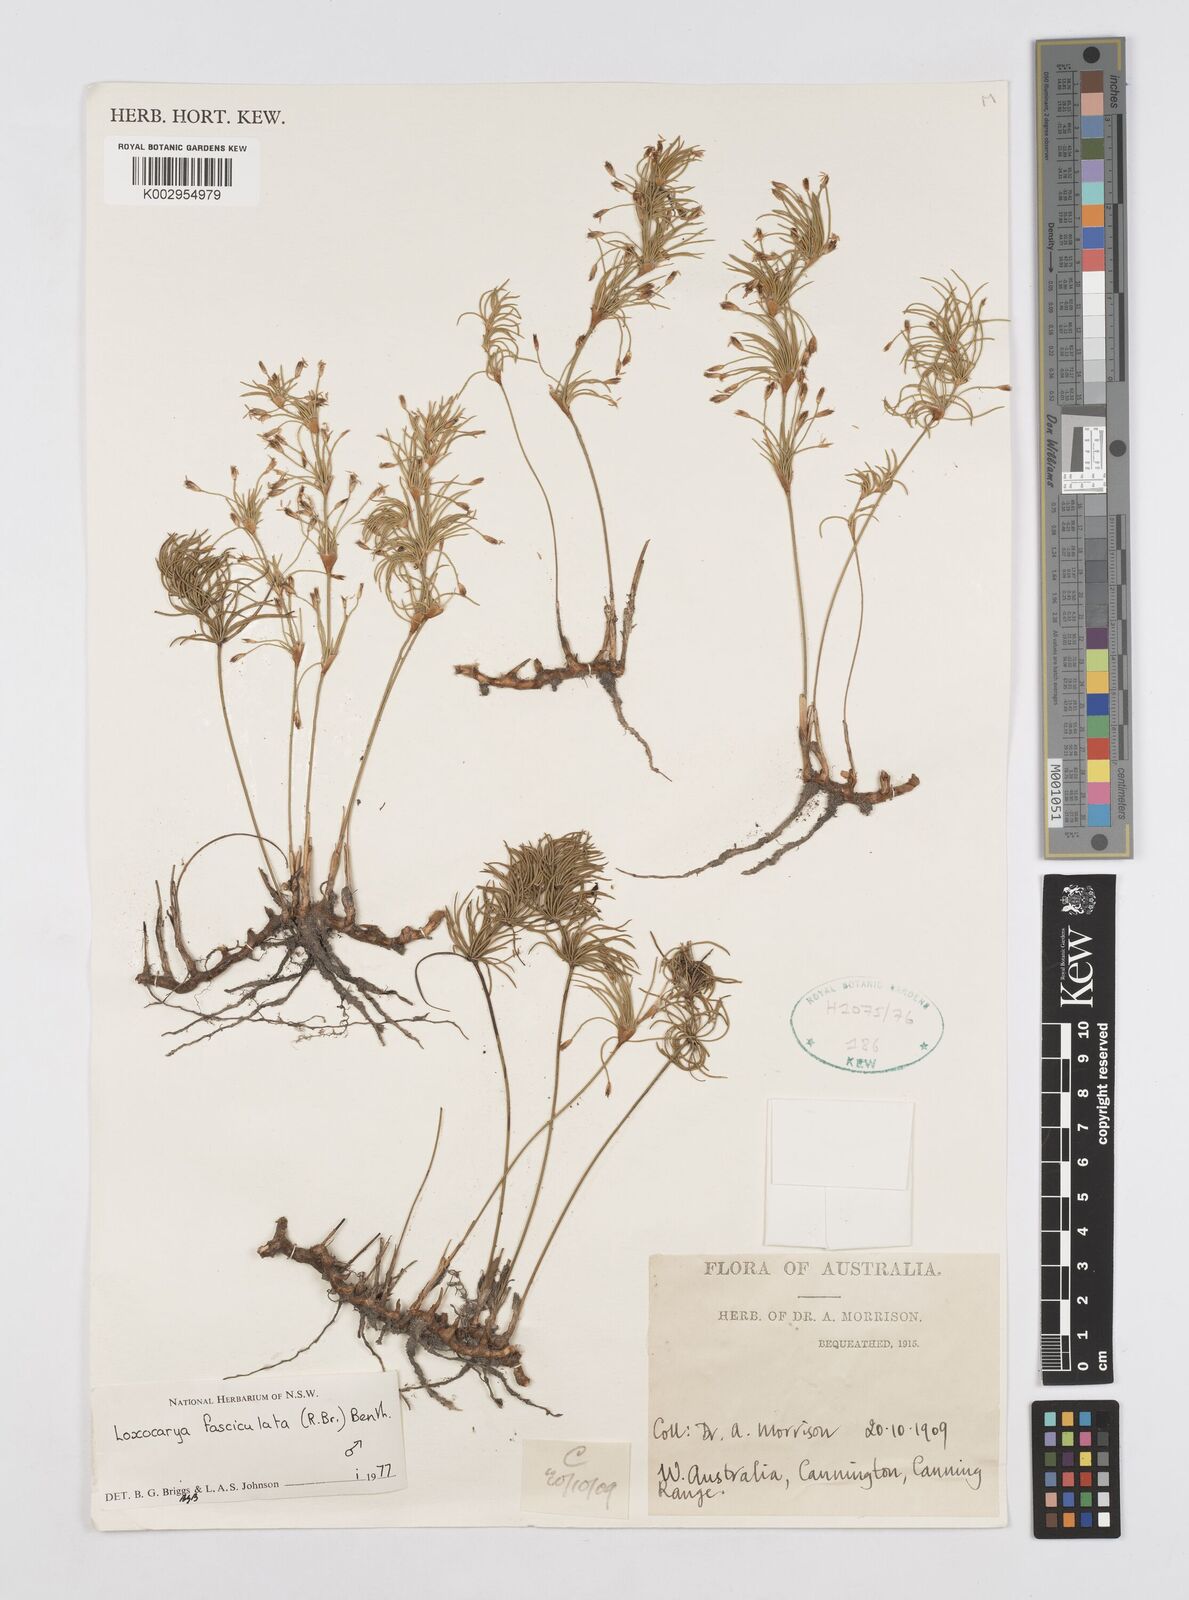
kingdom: Plantae
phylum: Tracheophyta
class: Liliopsida
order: Poales
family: Restionaceae
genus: Desmocladus
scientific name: Desmocladus fasciculatus
